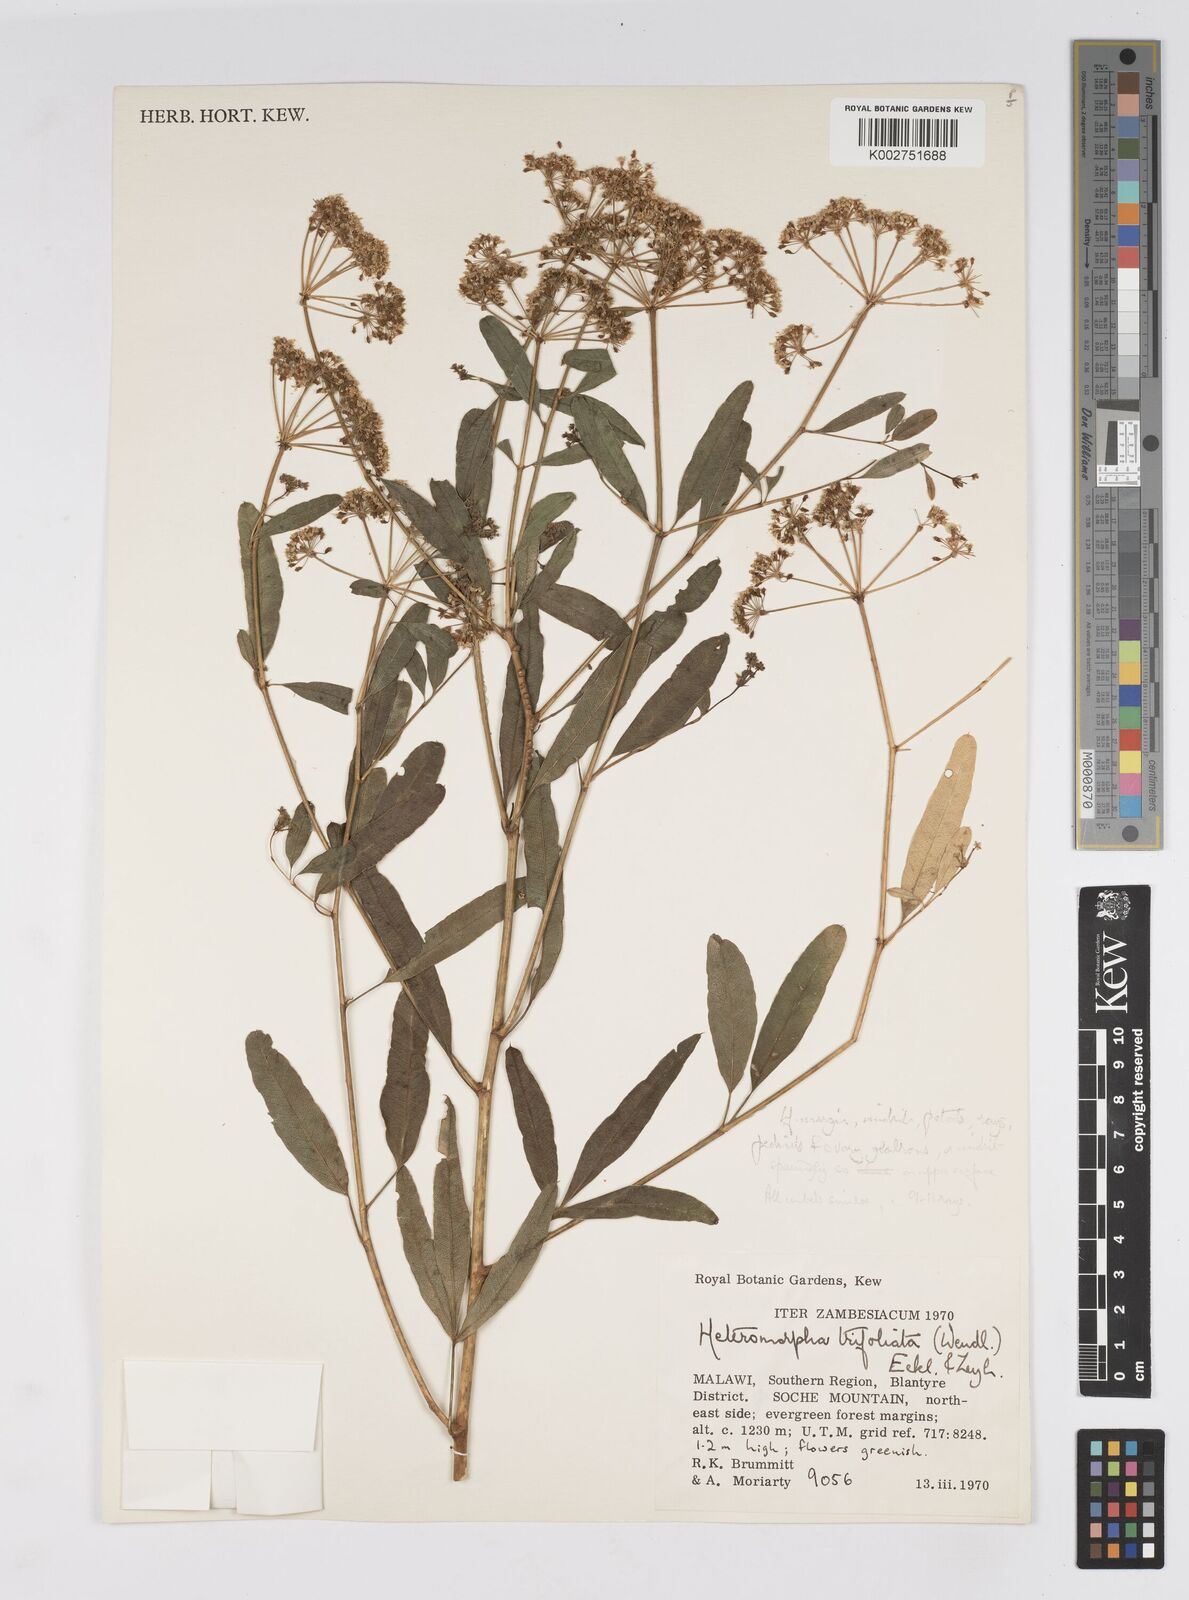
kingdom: Plantae
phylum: Tracheophyta
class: Magnoliopsida
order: Apiales
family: Apiaceae
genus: Heteromorpha
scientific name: Heteromorpha stenophylla
